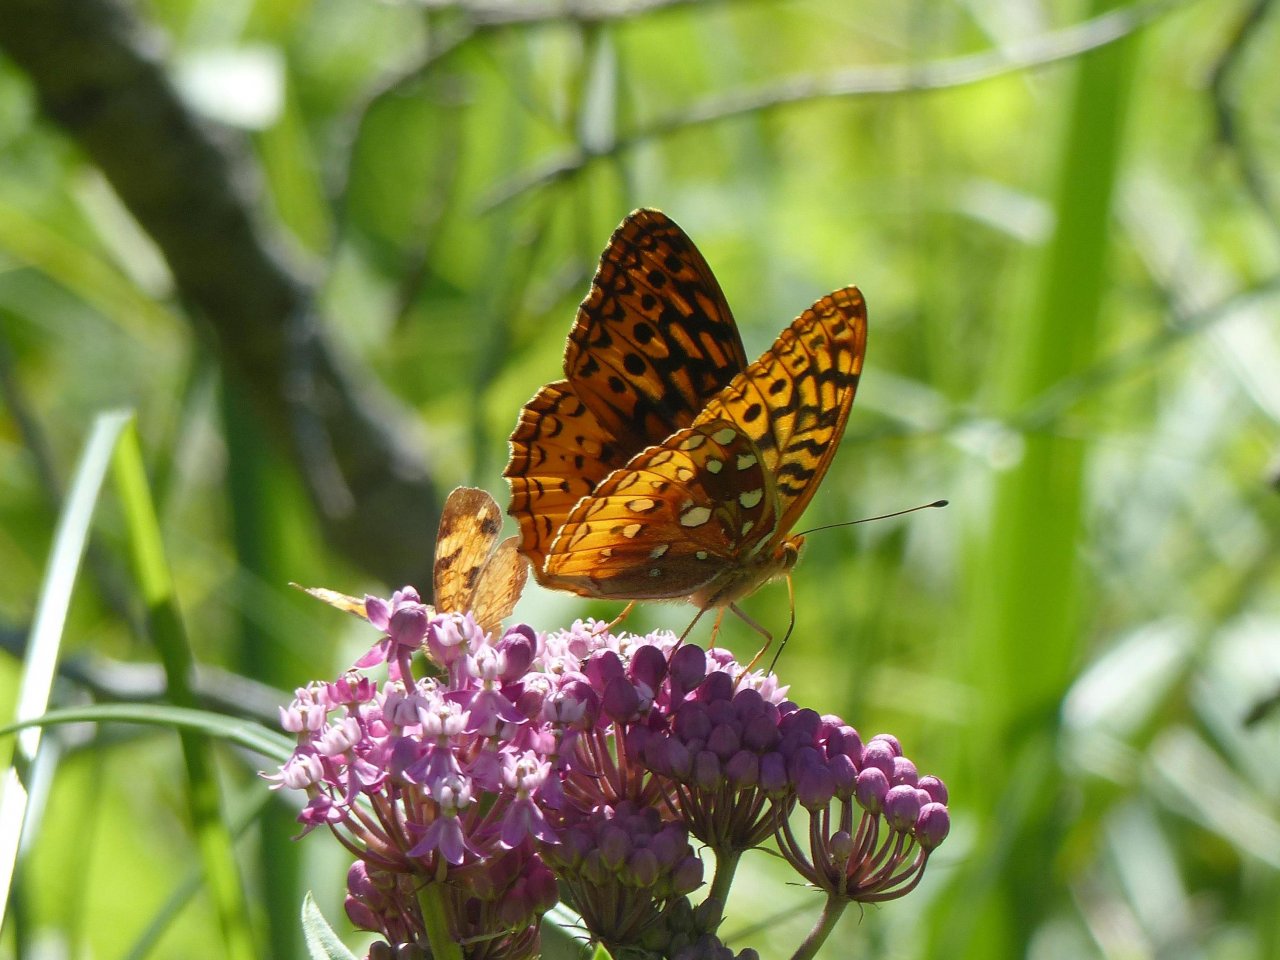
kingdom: Animalia
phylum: Arthropoda
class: Insecta
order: Lepidoptera
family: Nymphalidae
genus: Speyeria
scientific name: Speyeria cybele
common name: Great Spangled Fritillary
